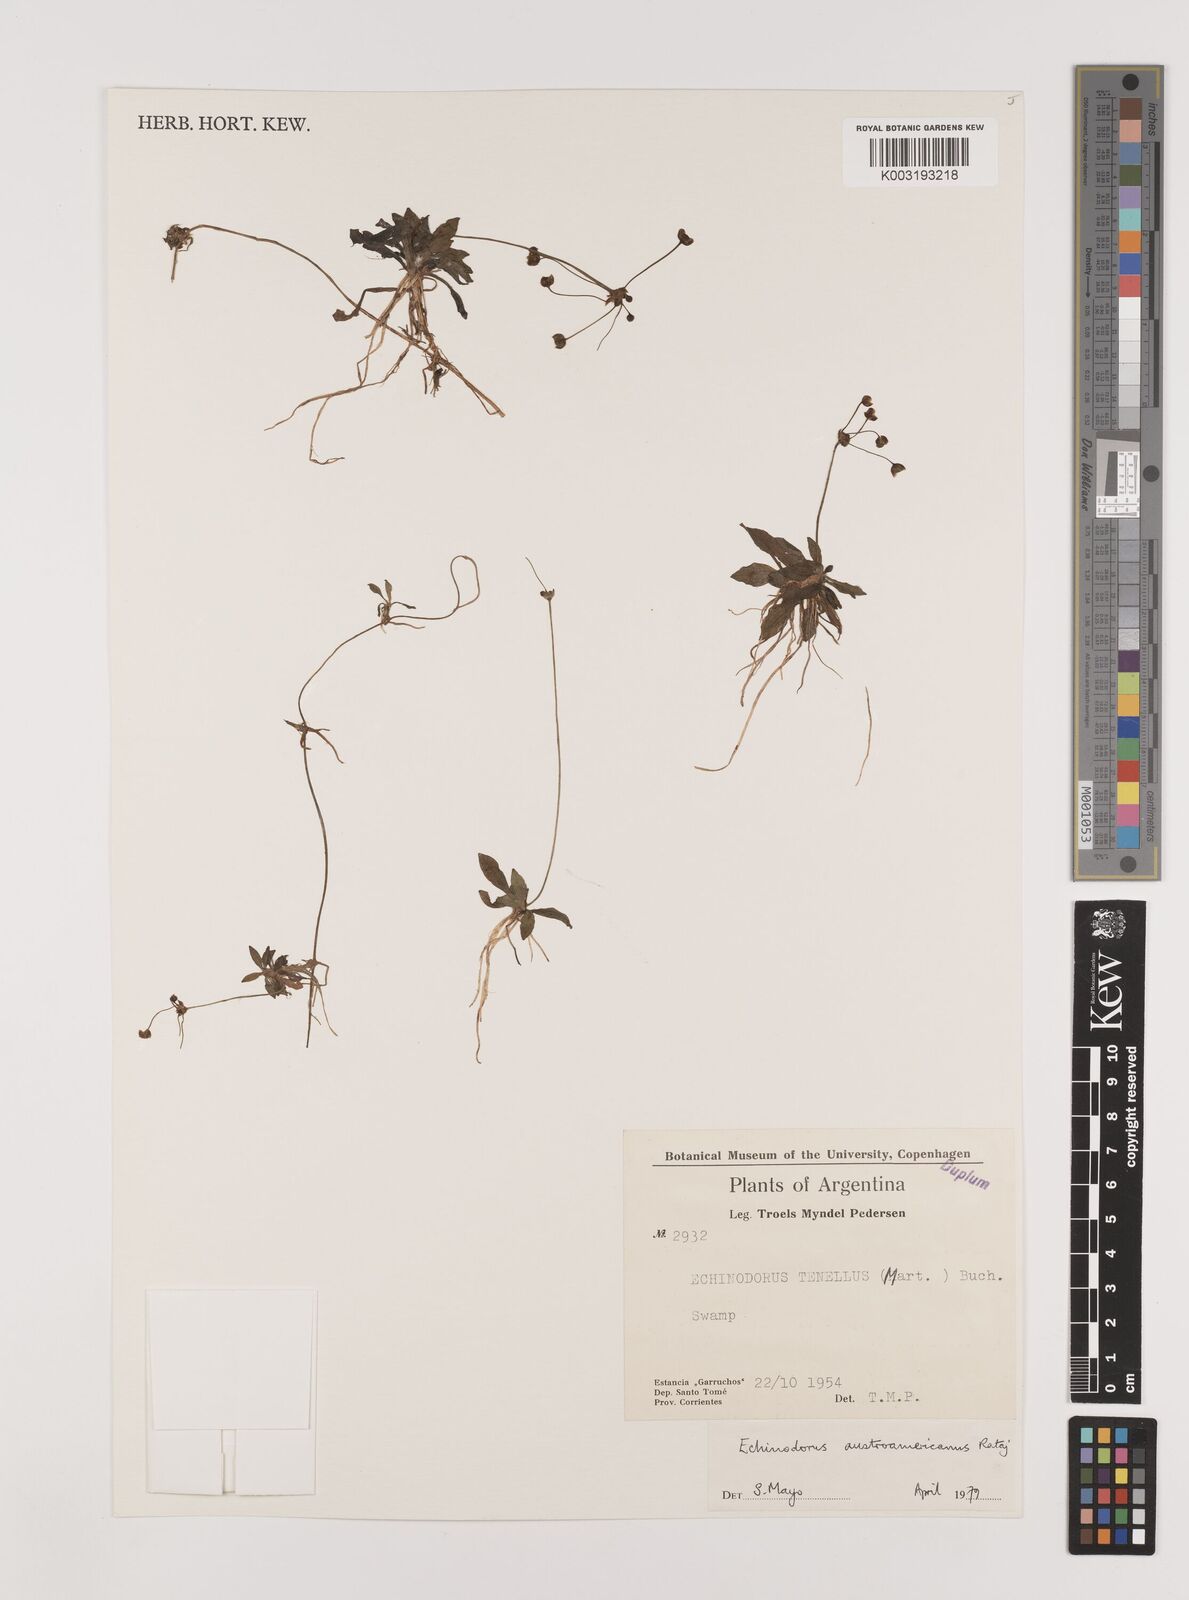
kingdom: Plantae
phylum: Tracheophyta
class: Liliopsida
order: Alismatales
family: Alismataceae
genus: Helanthium
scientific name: Helanthium bolivianum
